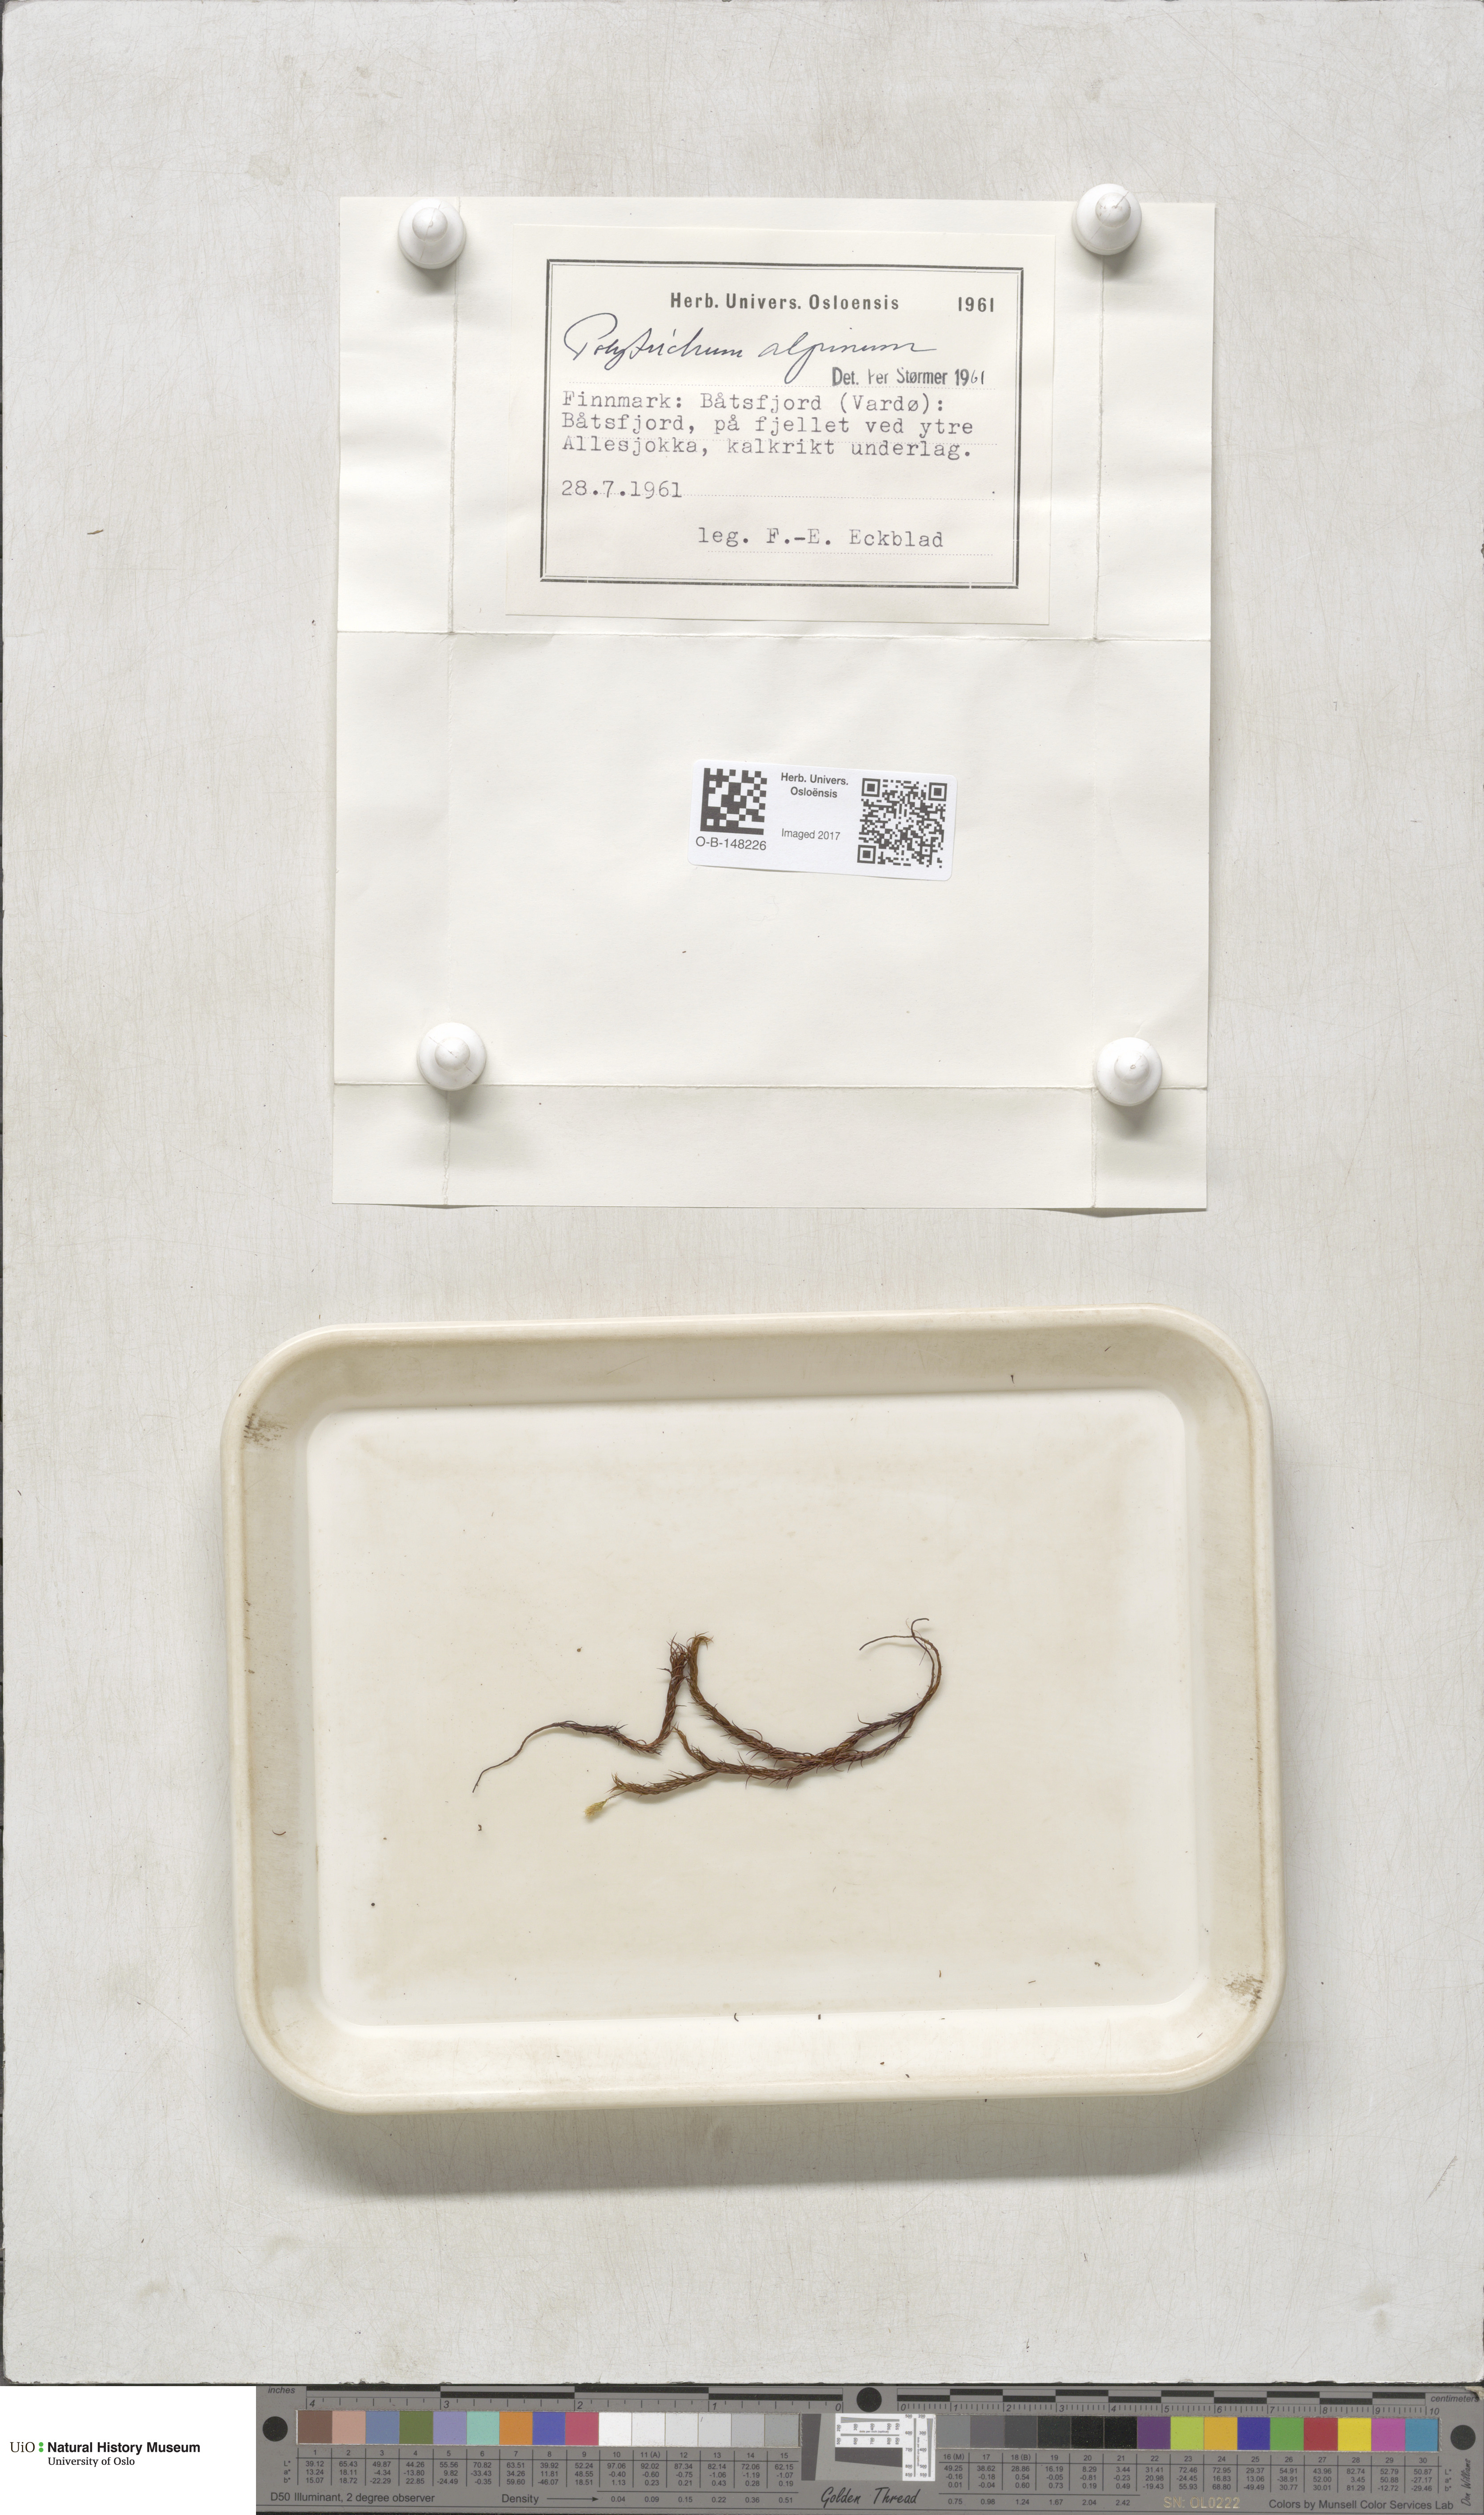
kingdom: Plantae
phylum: Bryophyta
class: Polytrichopsida
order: Polytrichales
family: Polytrichaceae
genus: Polytrichastrum
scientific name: Polytrichastrum alpinum
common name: Alpine haircap
